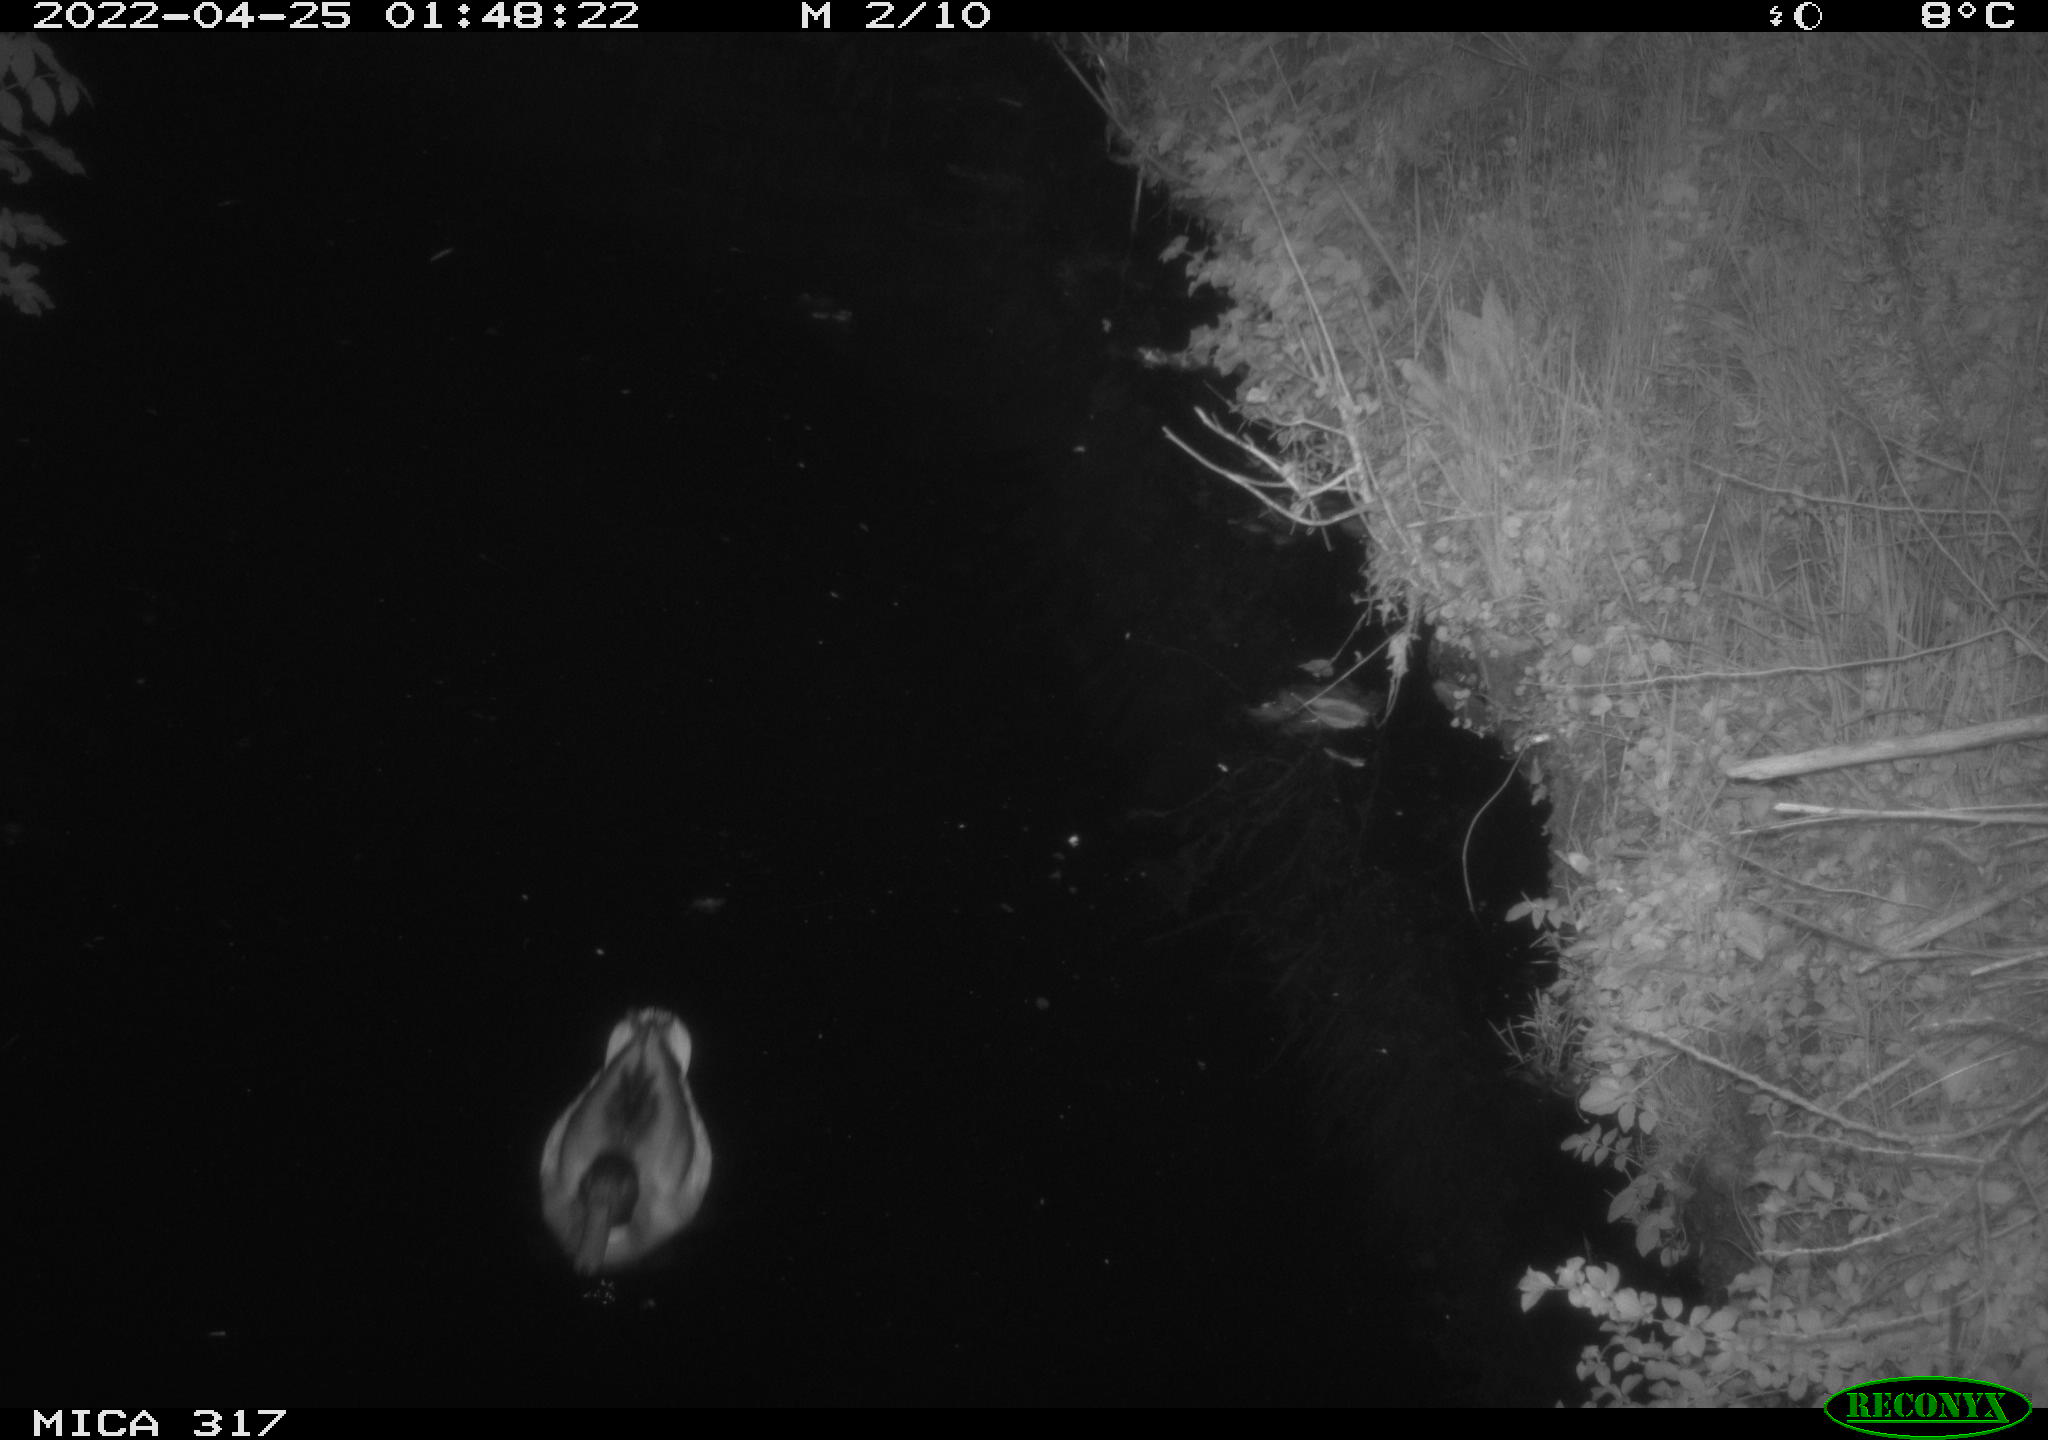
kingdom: Animalia
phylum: Chordata
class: Aves
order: Anseriformes
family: Anatidae
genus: Anas
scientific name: Anas platyrhynchos
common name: Mallard
